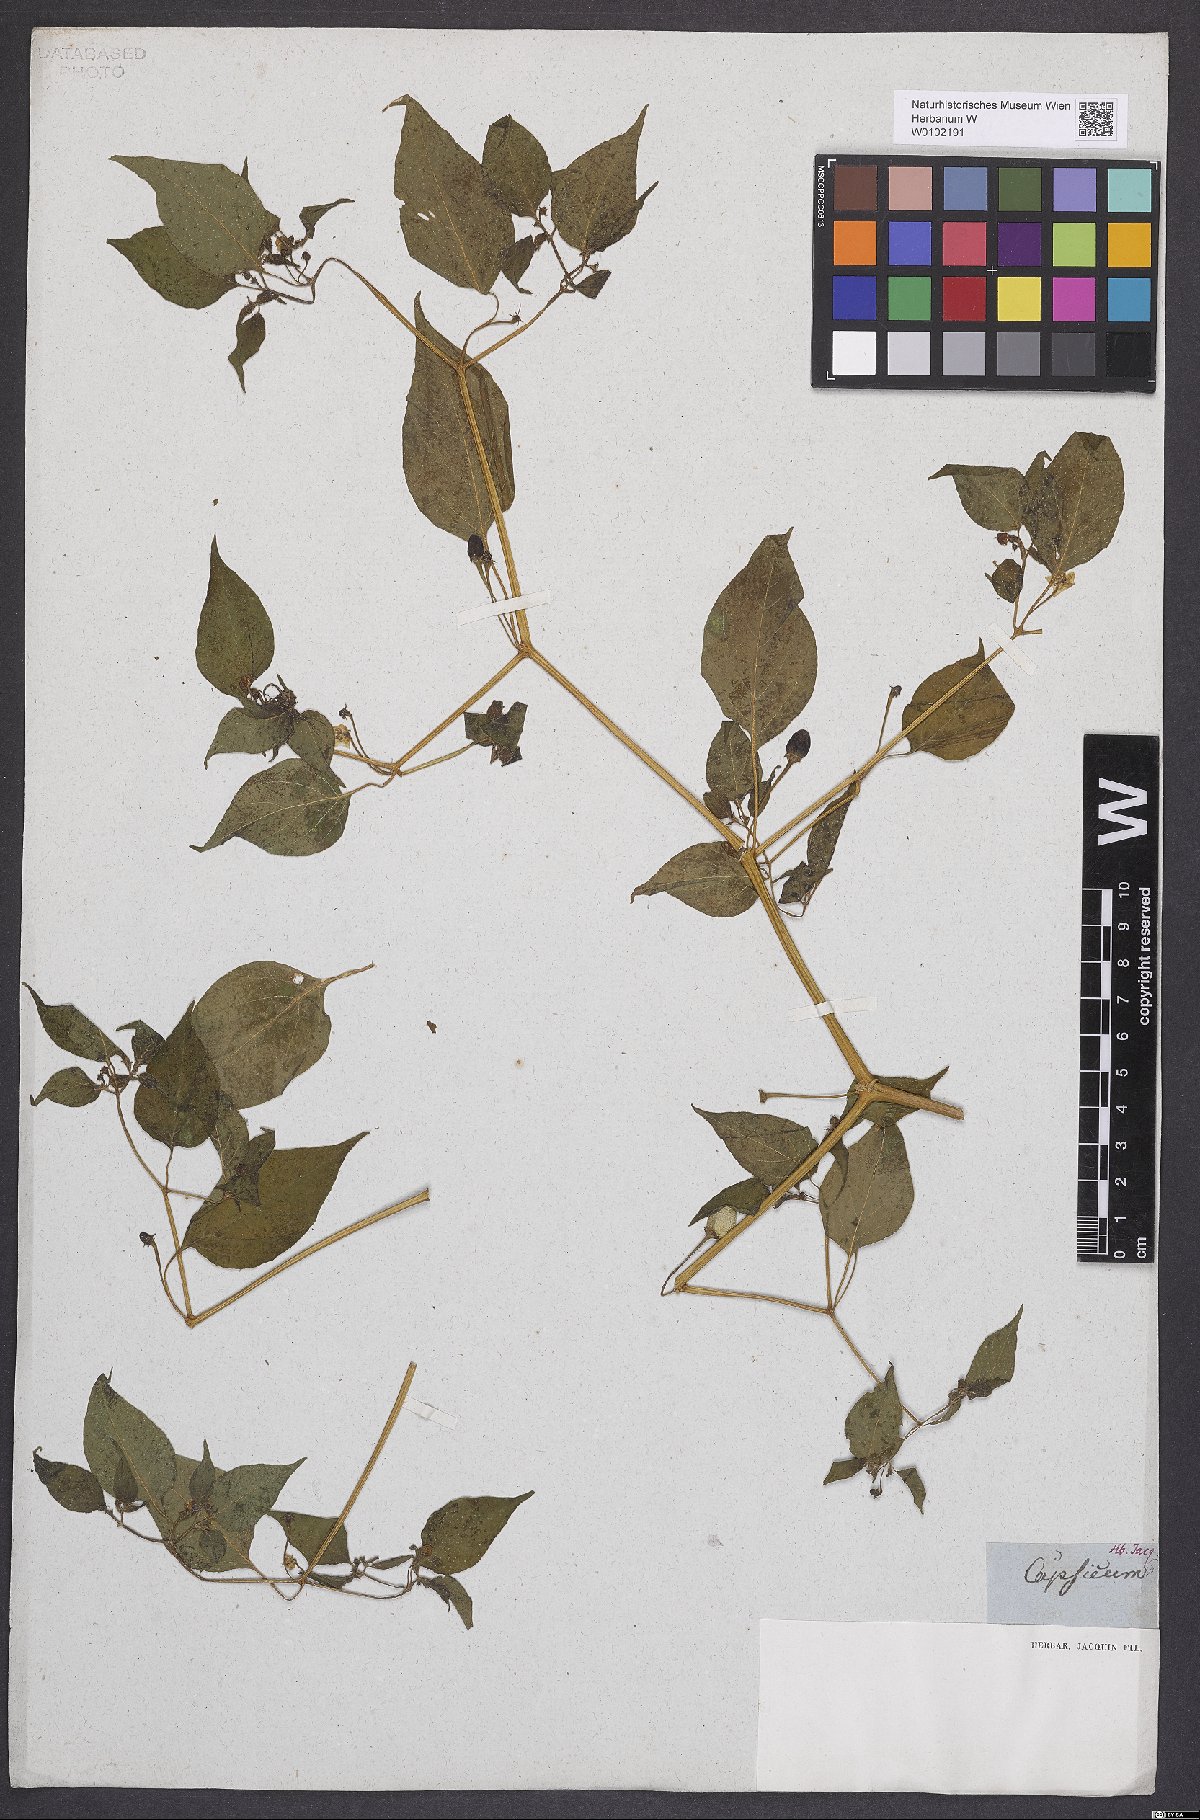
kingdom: Plantae
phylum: Tracheophyta
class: Magnoliopsida
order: Solanales
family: Solanaceae
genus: Capsicum
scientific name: Capsicum baccatum
